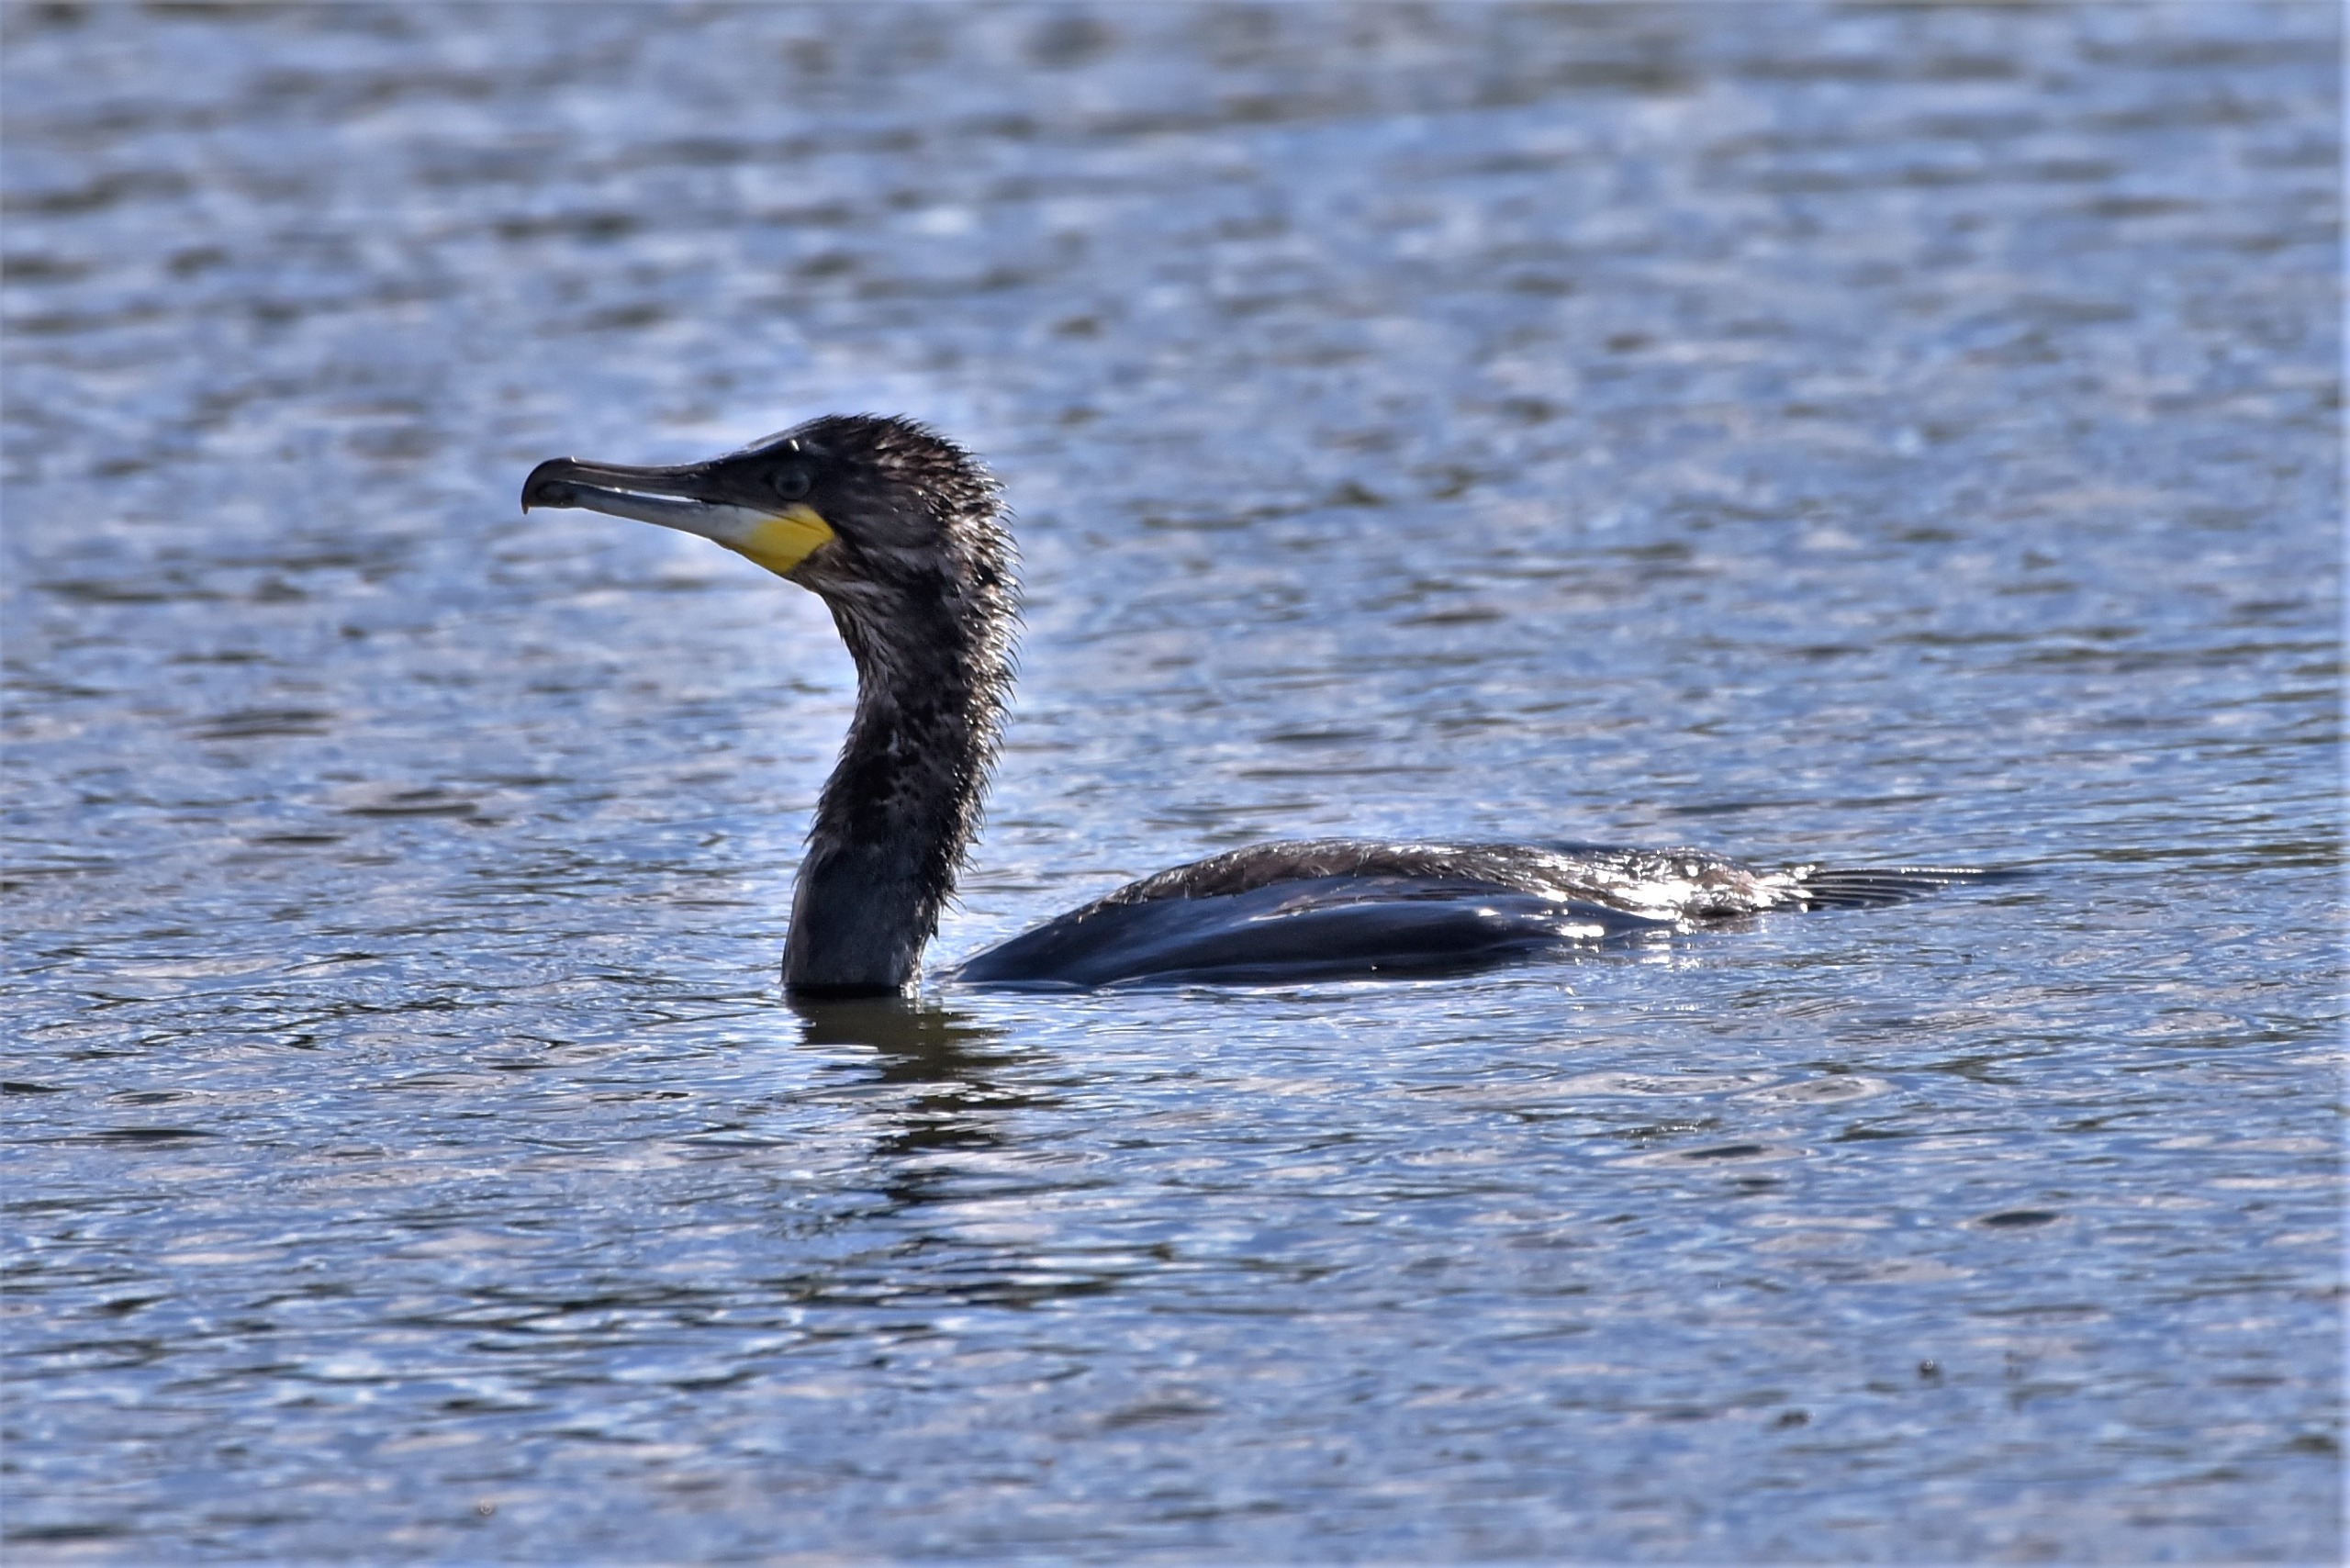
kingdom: Animalia
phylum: Chordata
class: Aves
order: Suliformes
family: Phalacrocoracidae
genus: Phalacrocorax
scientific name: Phalacrocorax carbo
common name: Skarv
